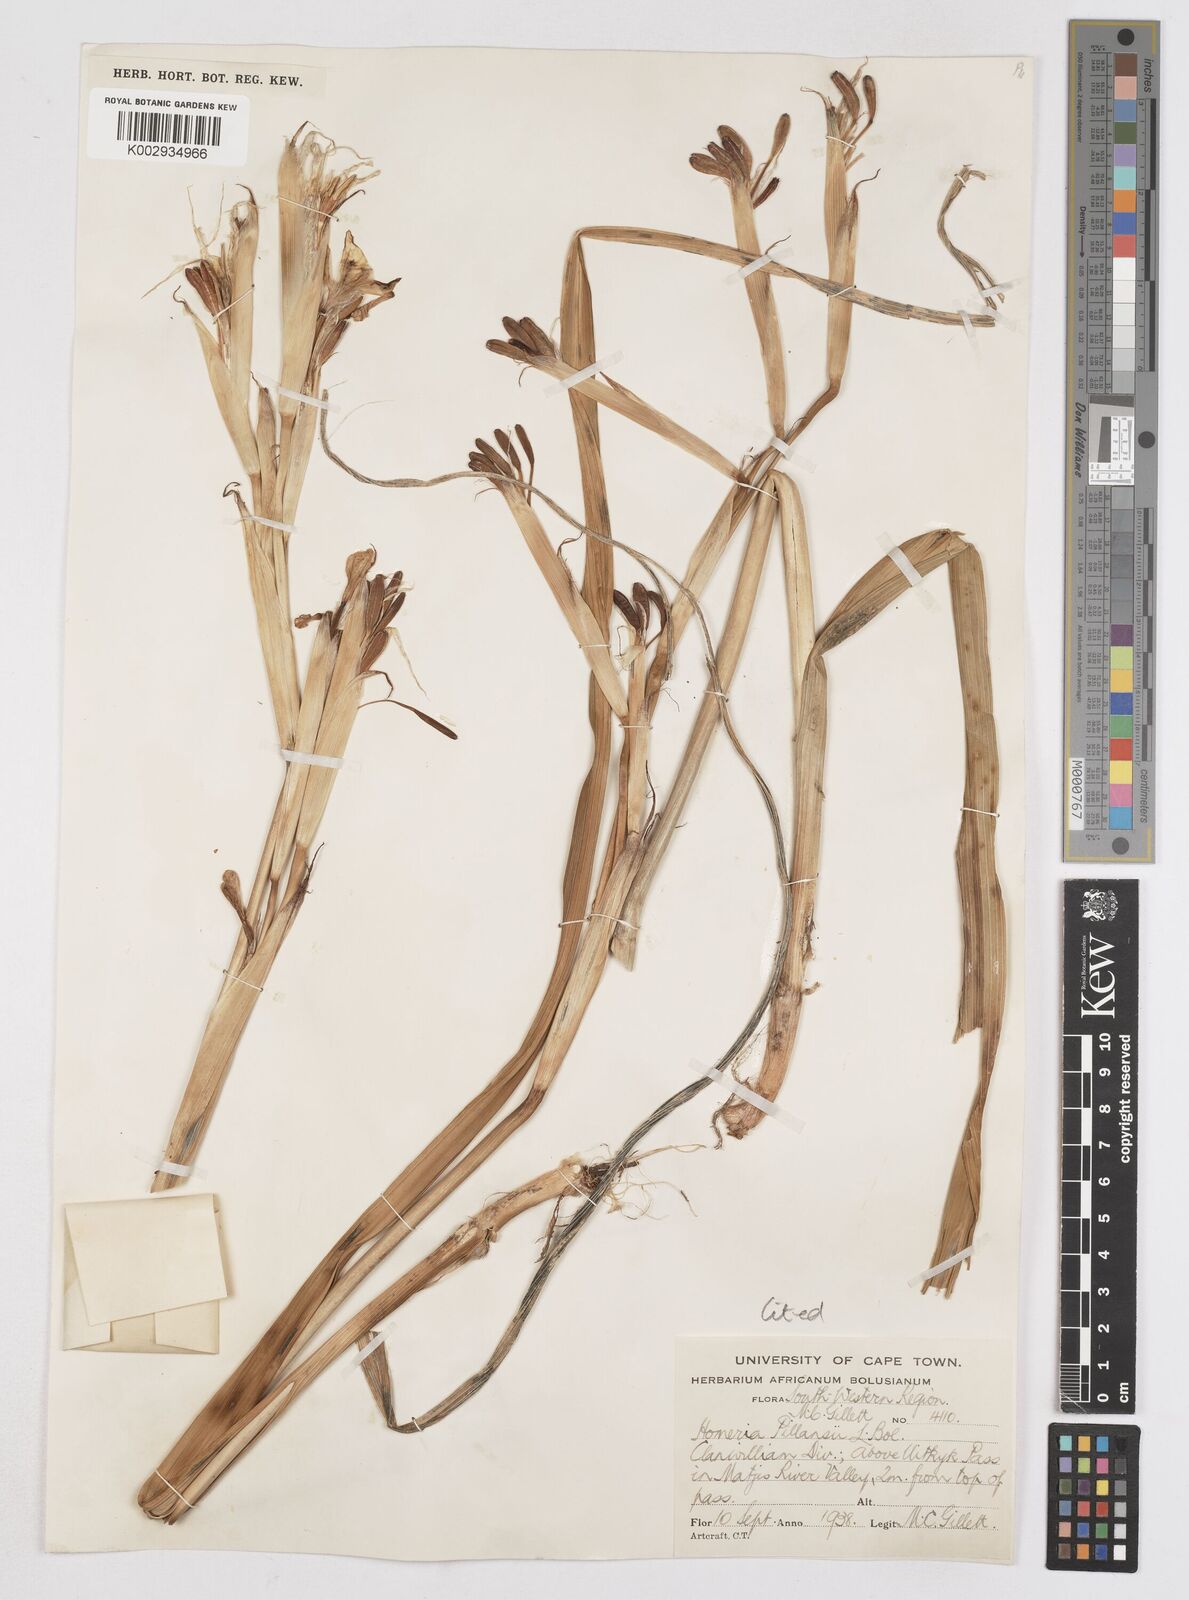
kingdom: Plantae
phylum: Tracheophyta
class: Liliopsida
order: Asparagales
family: Iridaceae
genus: Moraea
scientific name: Moraea cookii
